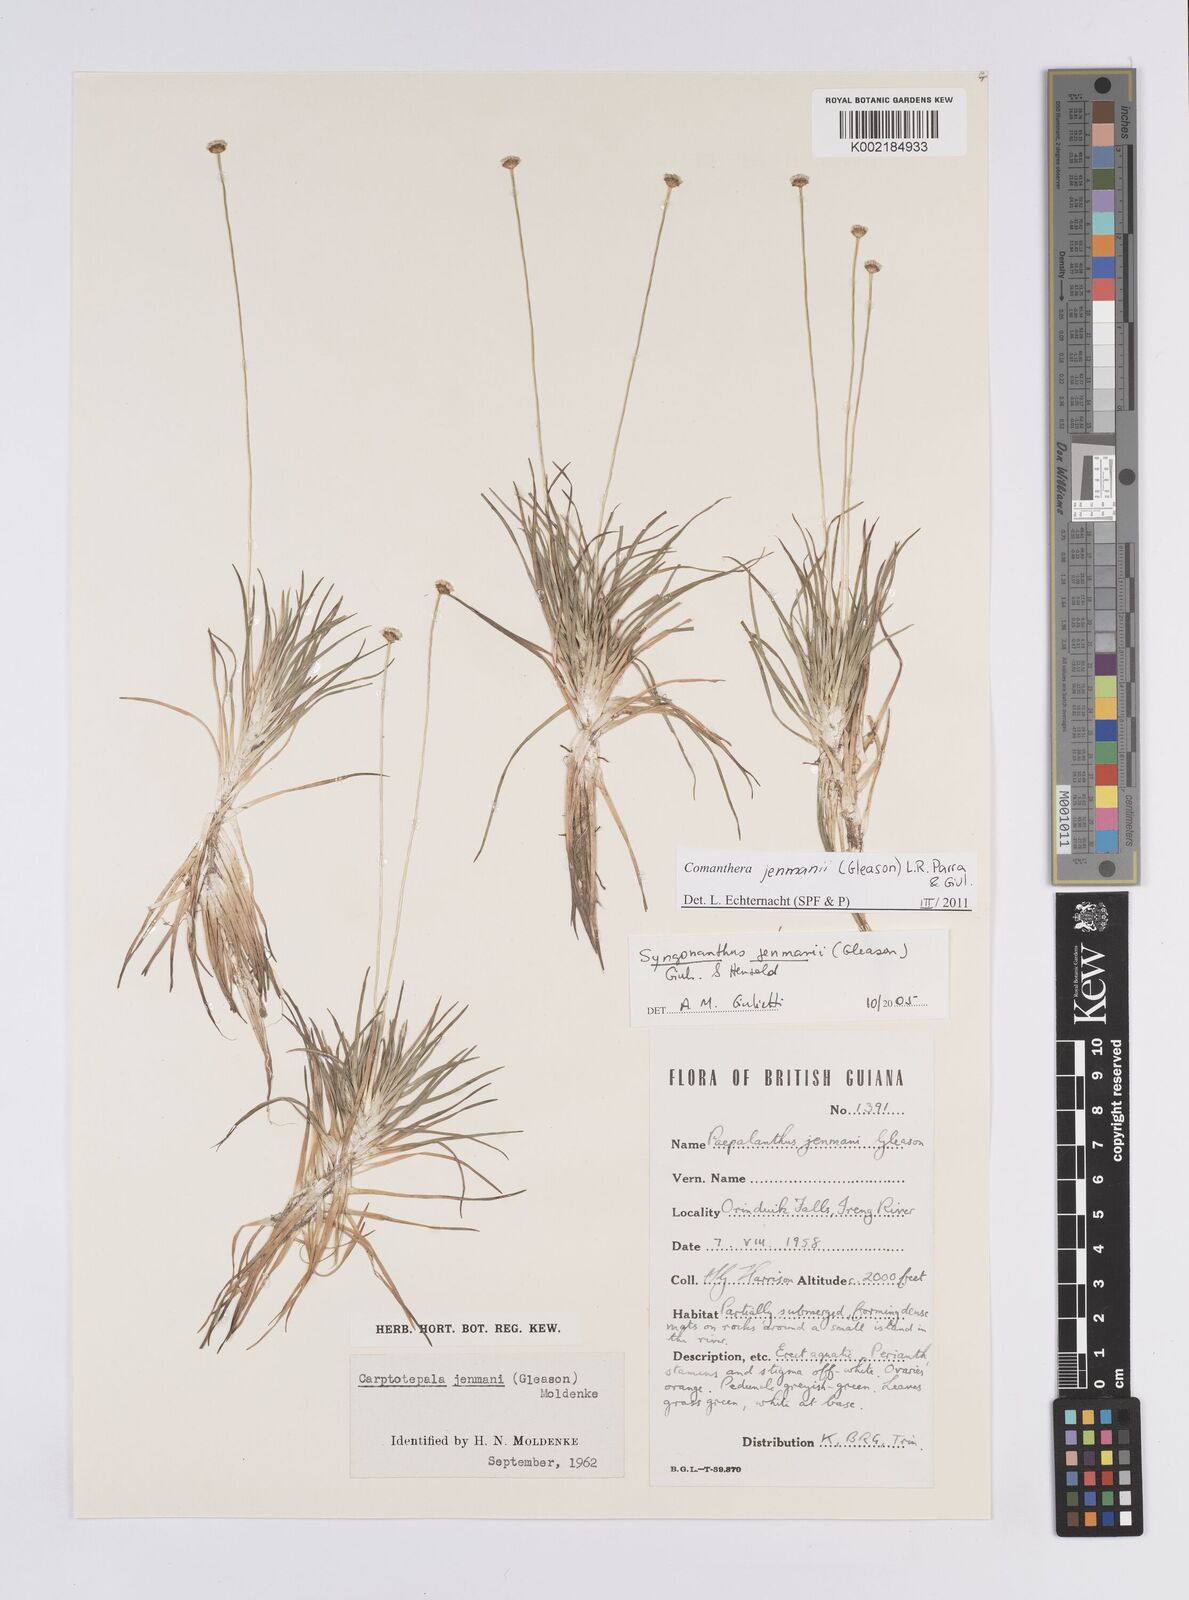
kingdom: Plantae
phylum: Tracheophyta
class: Liliopsida
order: Poales
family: Eriocaulaceae
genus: Comanthera
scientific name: Comanthera jenmanii
